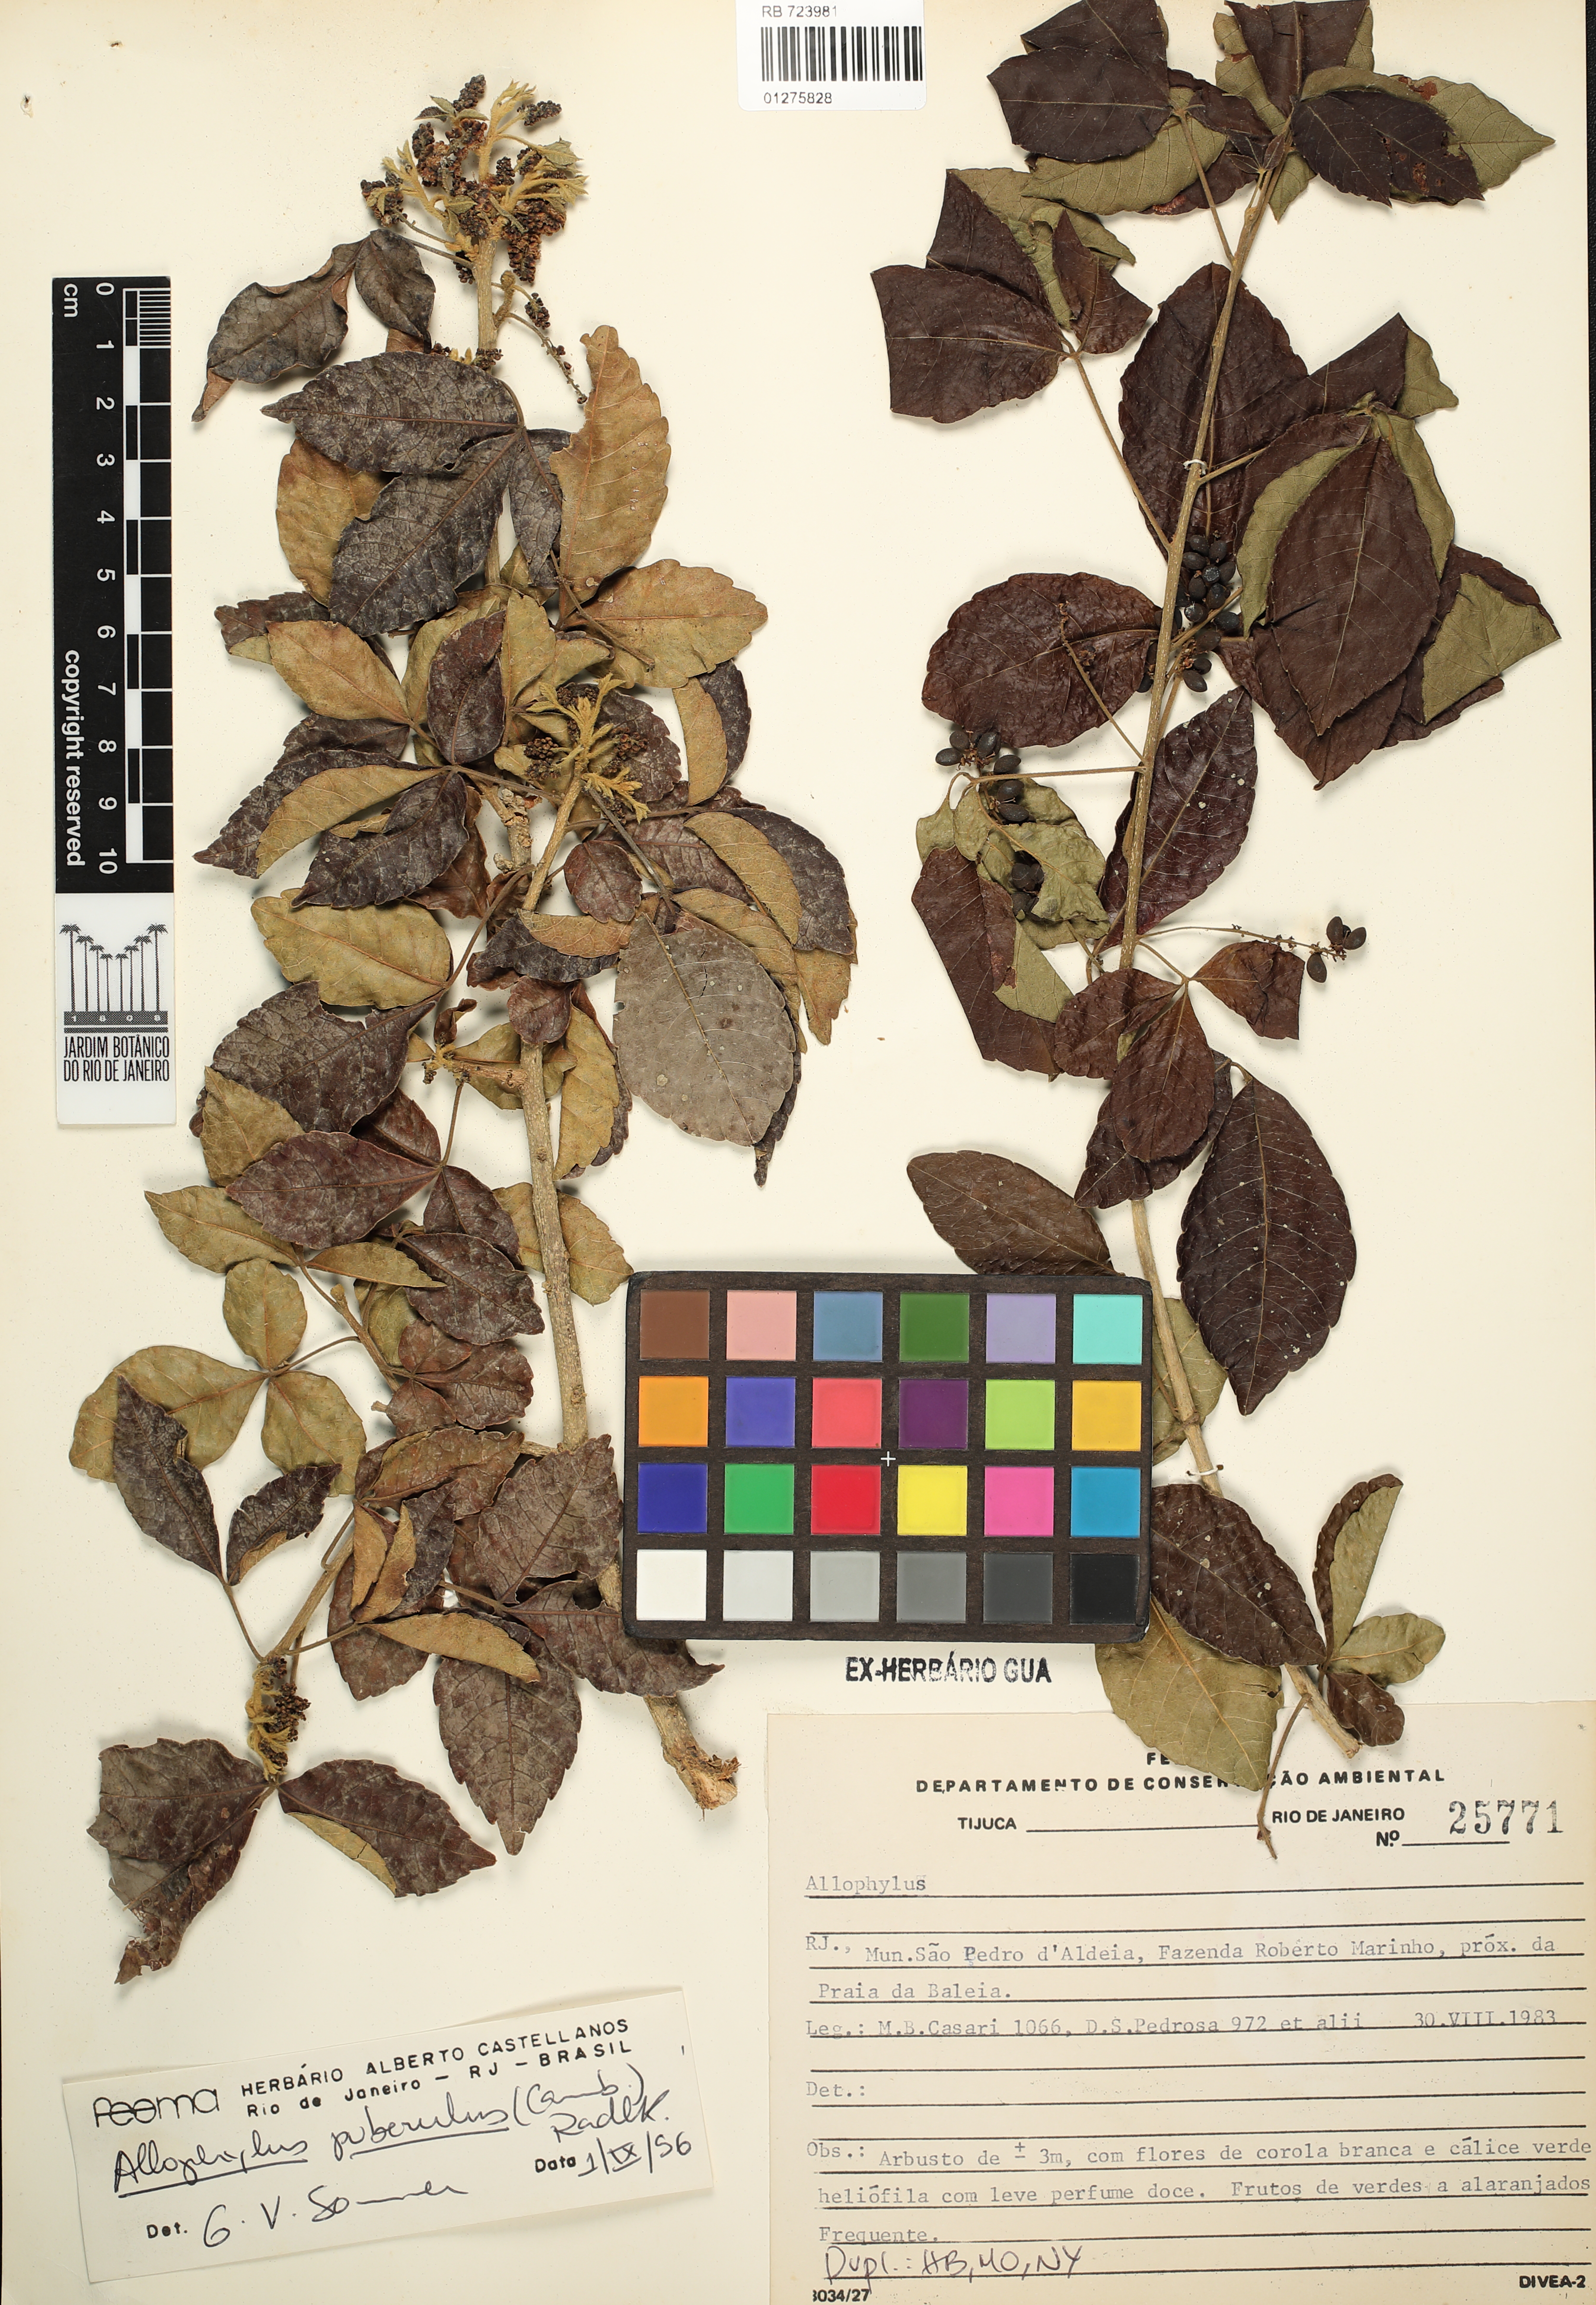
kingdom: Plantae
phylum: Tracheophyta
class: Magnoliopsida
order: Sapindales
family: Sapindaceae
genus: Allophylus
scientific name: Allophylus puberulus
